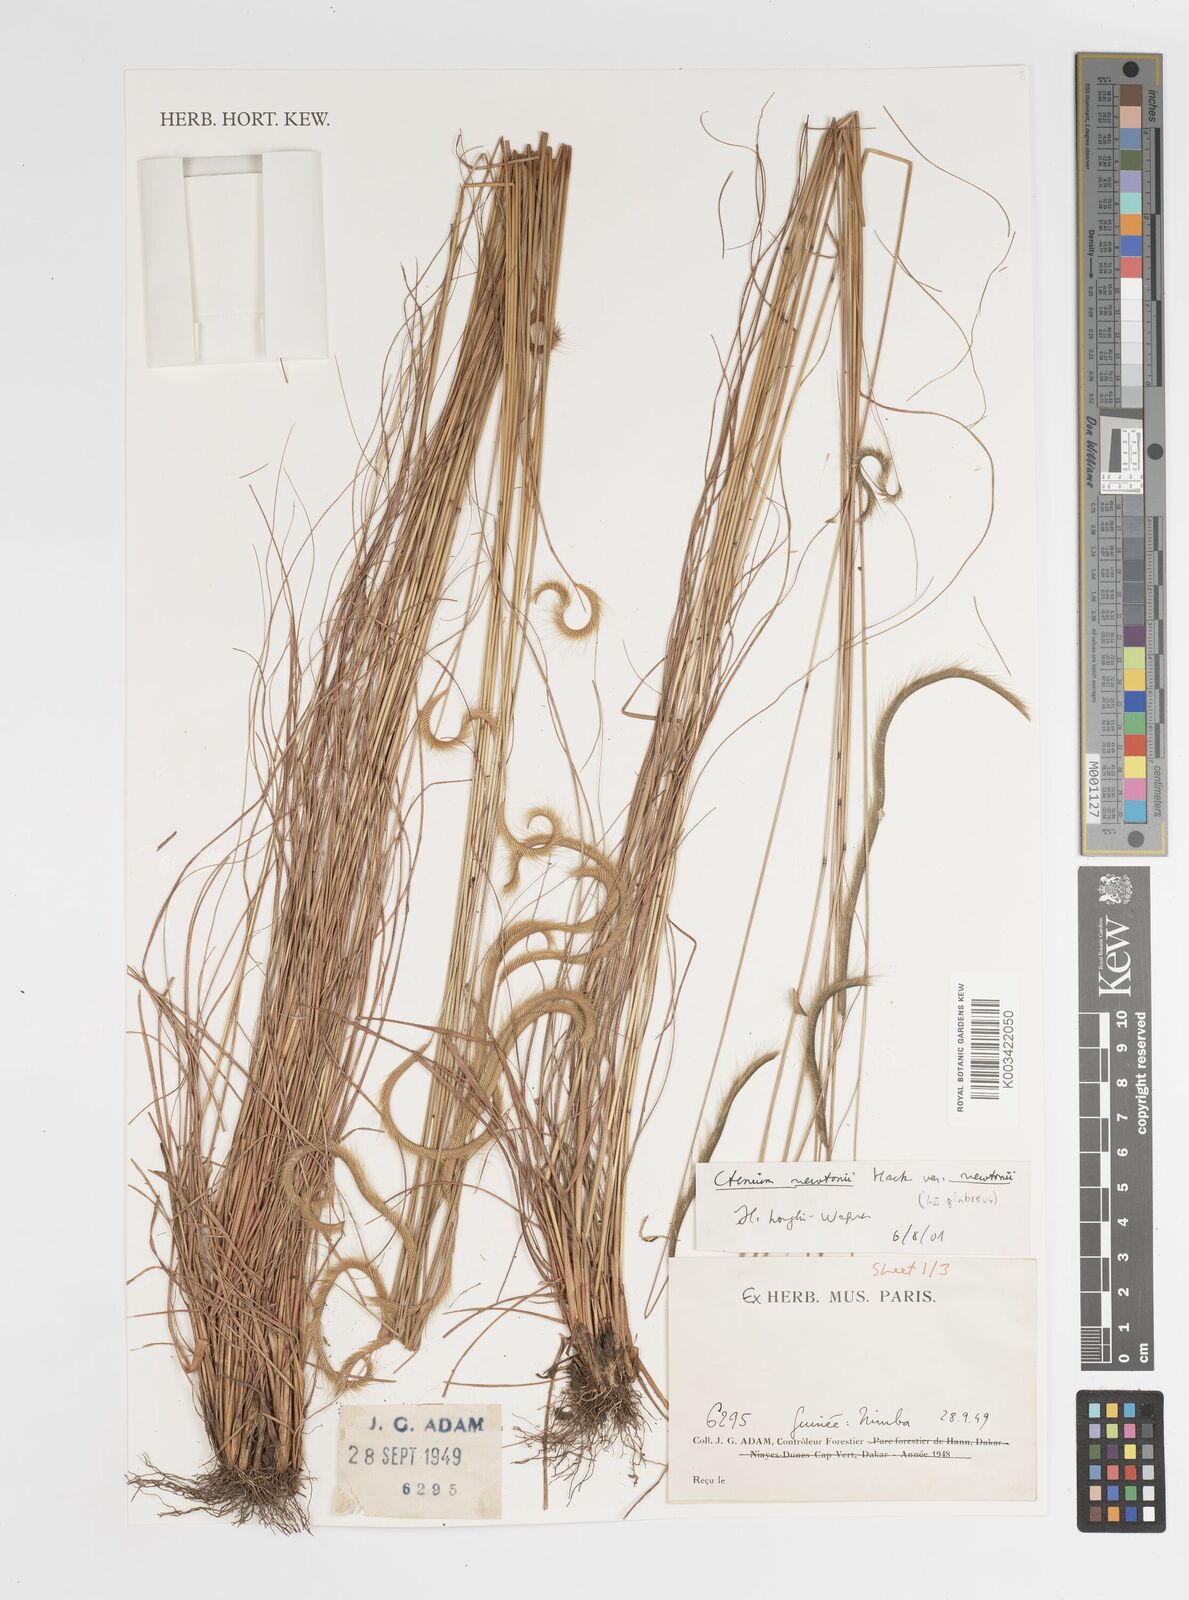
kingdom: Plantae
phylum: Tracheophyta
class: Liliopsida
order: Poales
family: Poaceae
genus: Ctenium
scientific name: Ctenium newtonii
